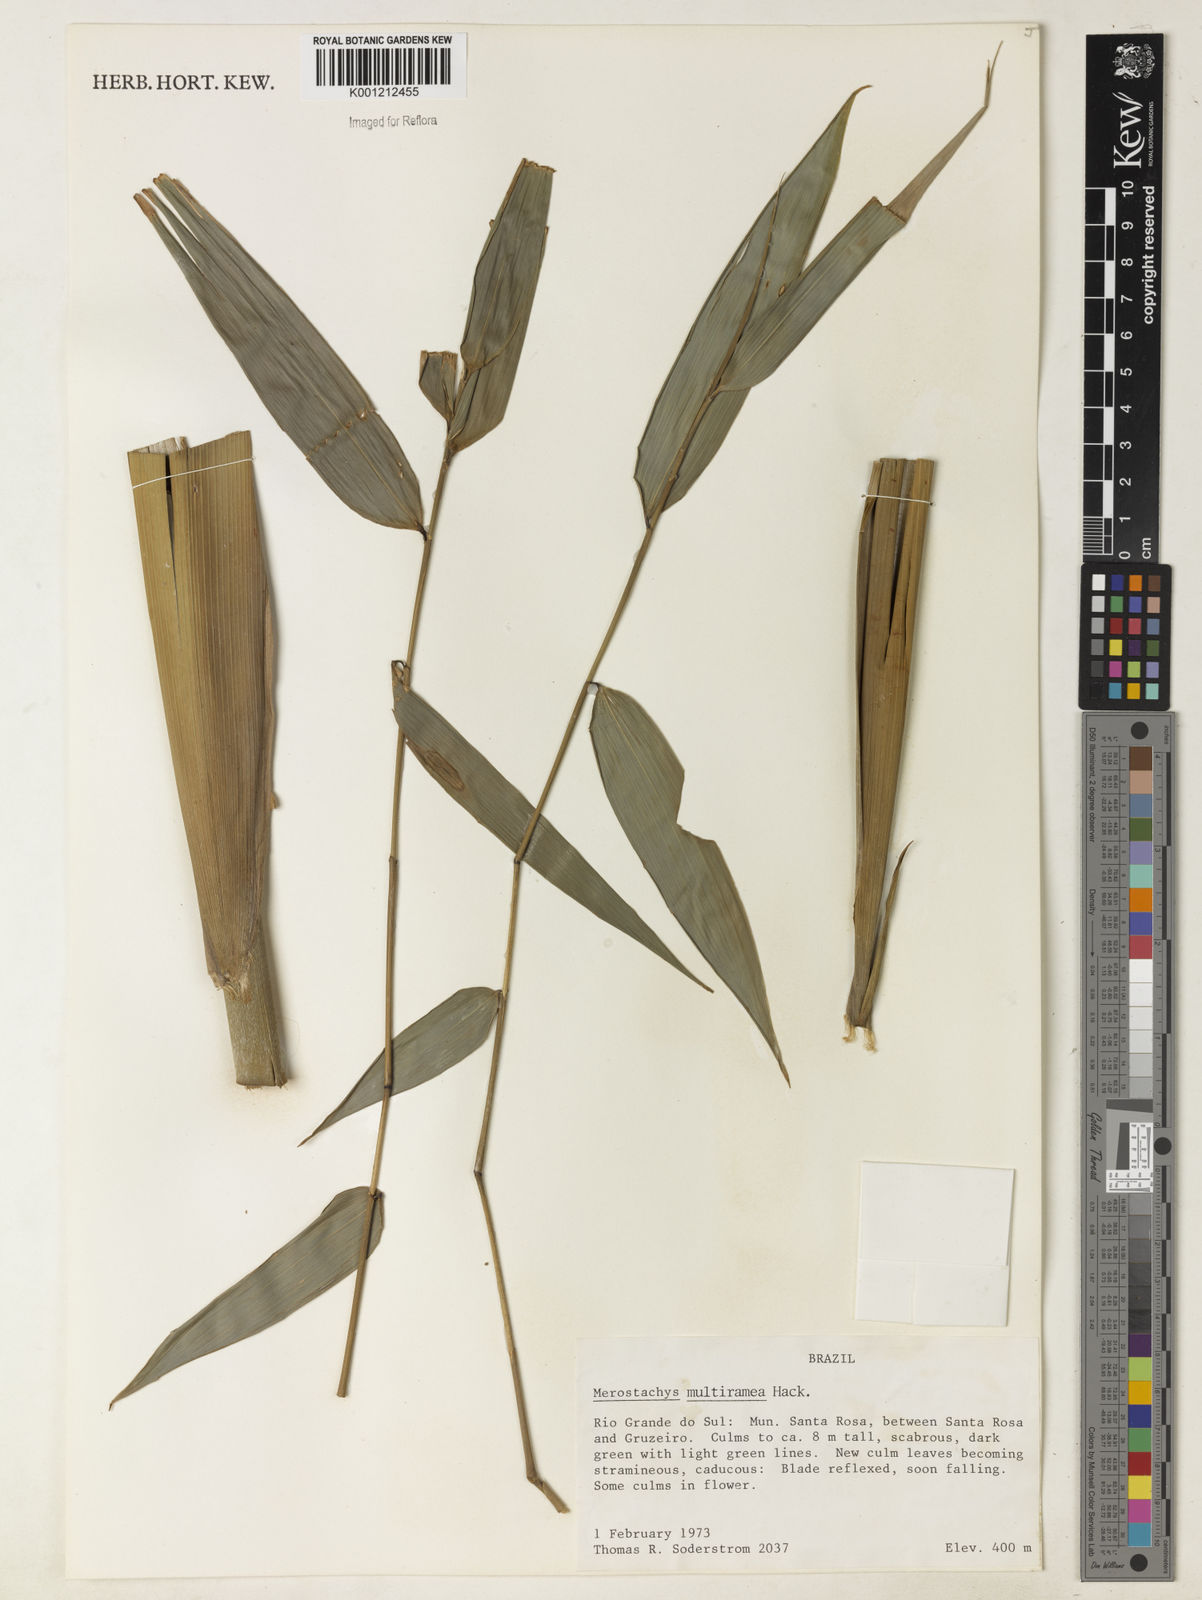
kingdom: Plantae
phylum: Tracheophyta
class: Liliopsida
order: Poales
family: Poaceae
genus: Merostachys
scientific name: Merostachys multiramea
